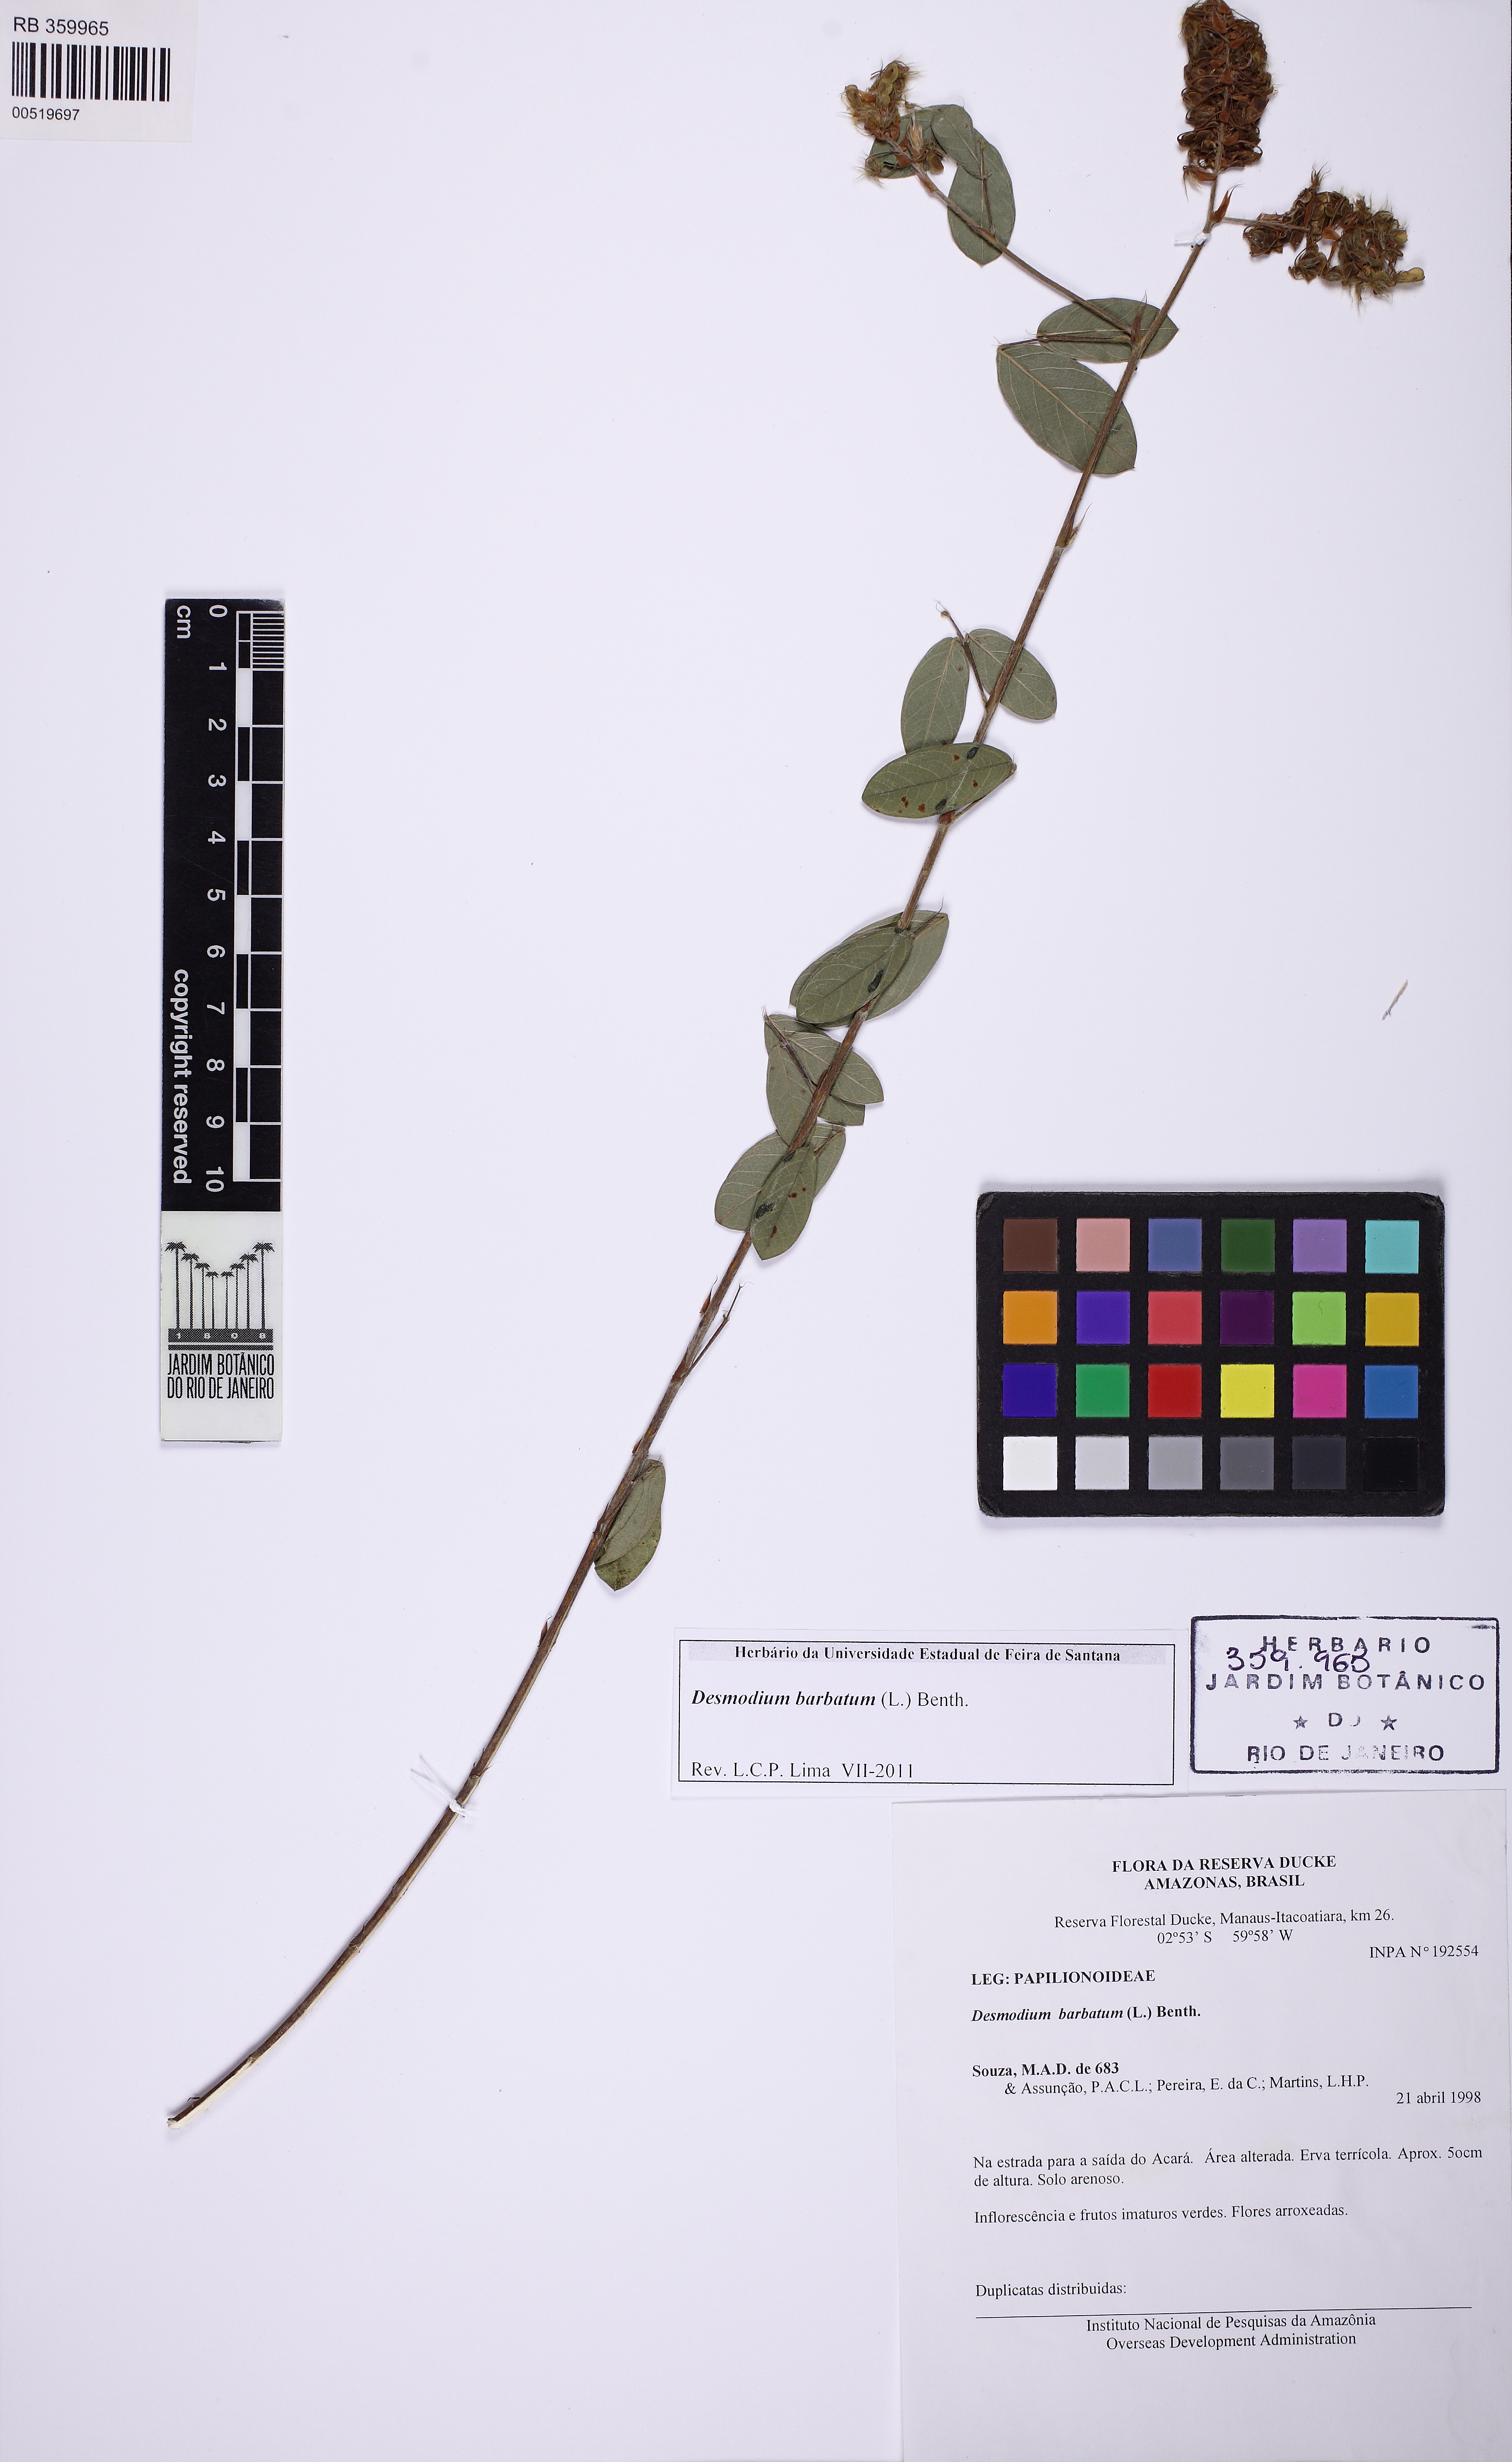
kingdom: Plantae
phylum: Tracheophyta
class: Magnoliopsida
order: Fabales
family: Fabaceae
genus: Grona
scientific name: Grona barbata
